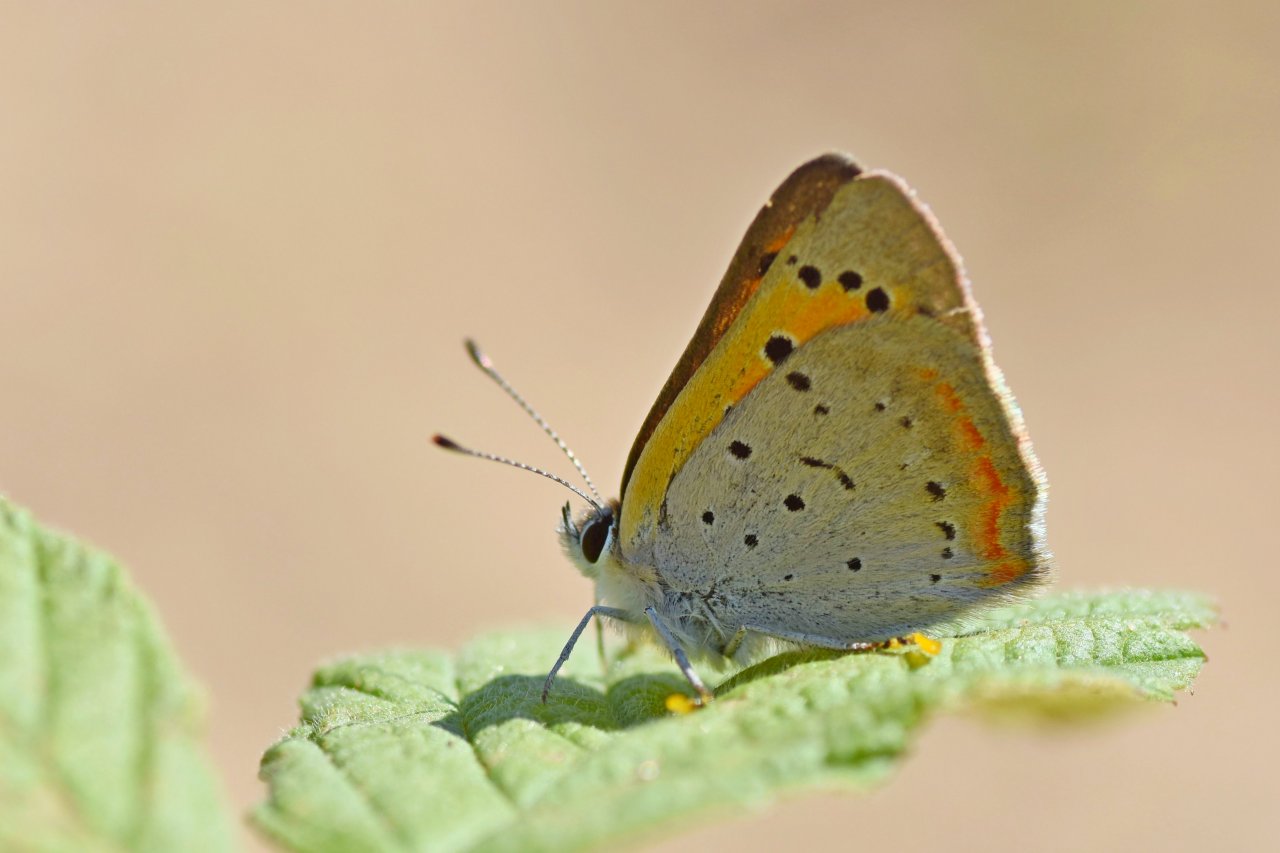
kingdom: Animalia
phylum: Arthropoda
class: Insecta
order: Lepidoptera
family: Lycaenidae
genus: Lycaena
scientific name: Lycaena phlaeas
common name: American Copper
